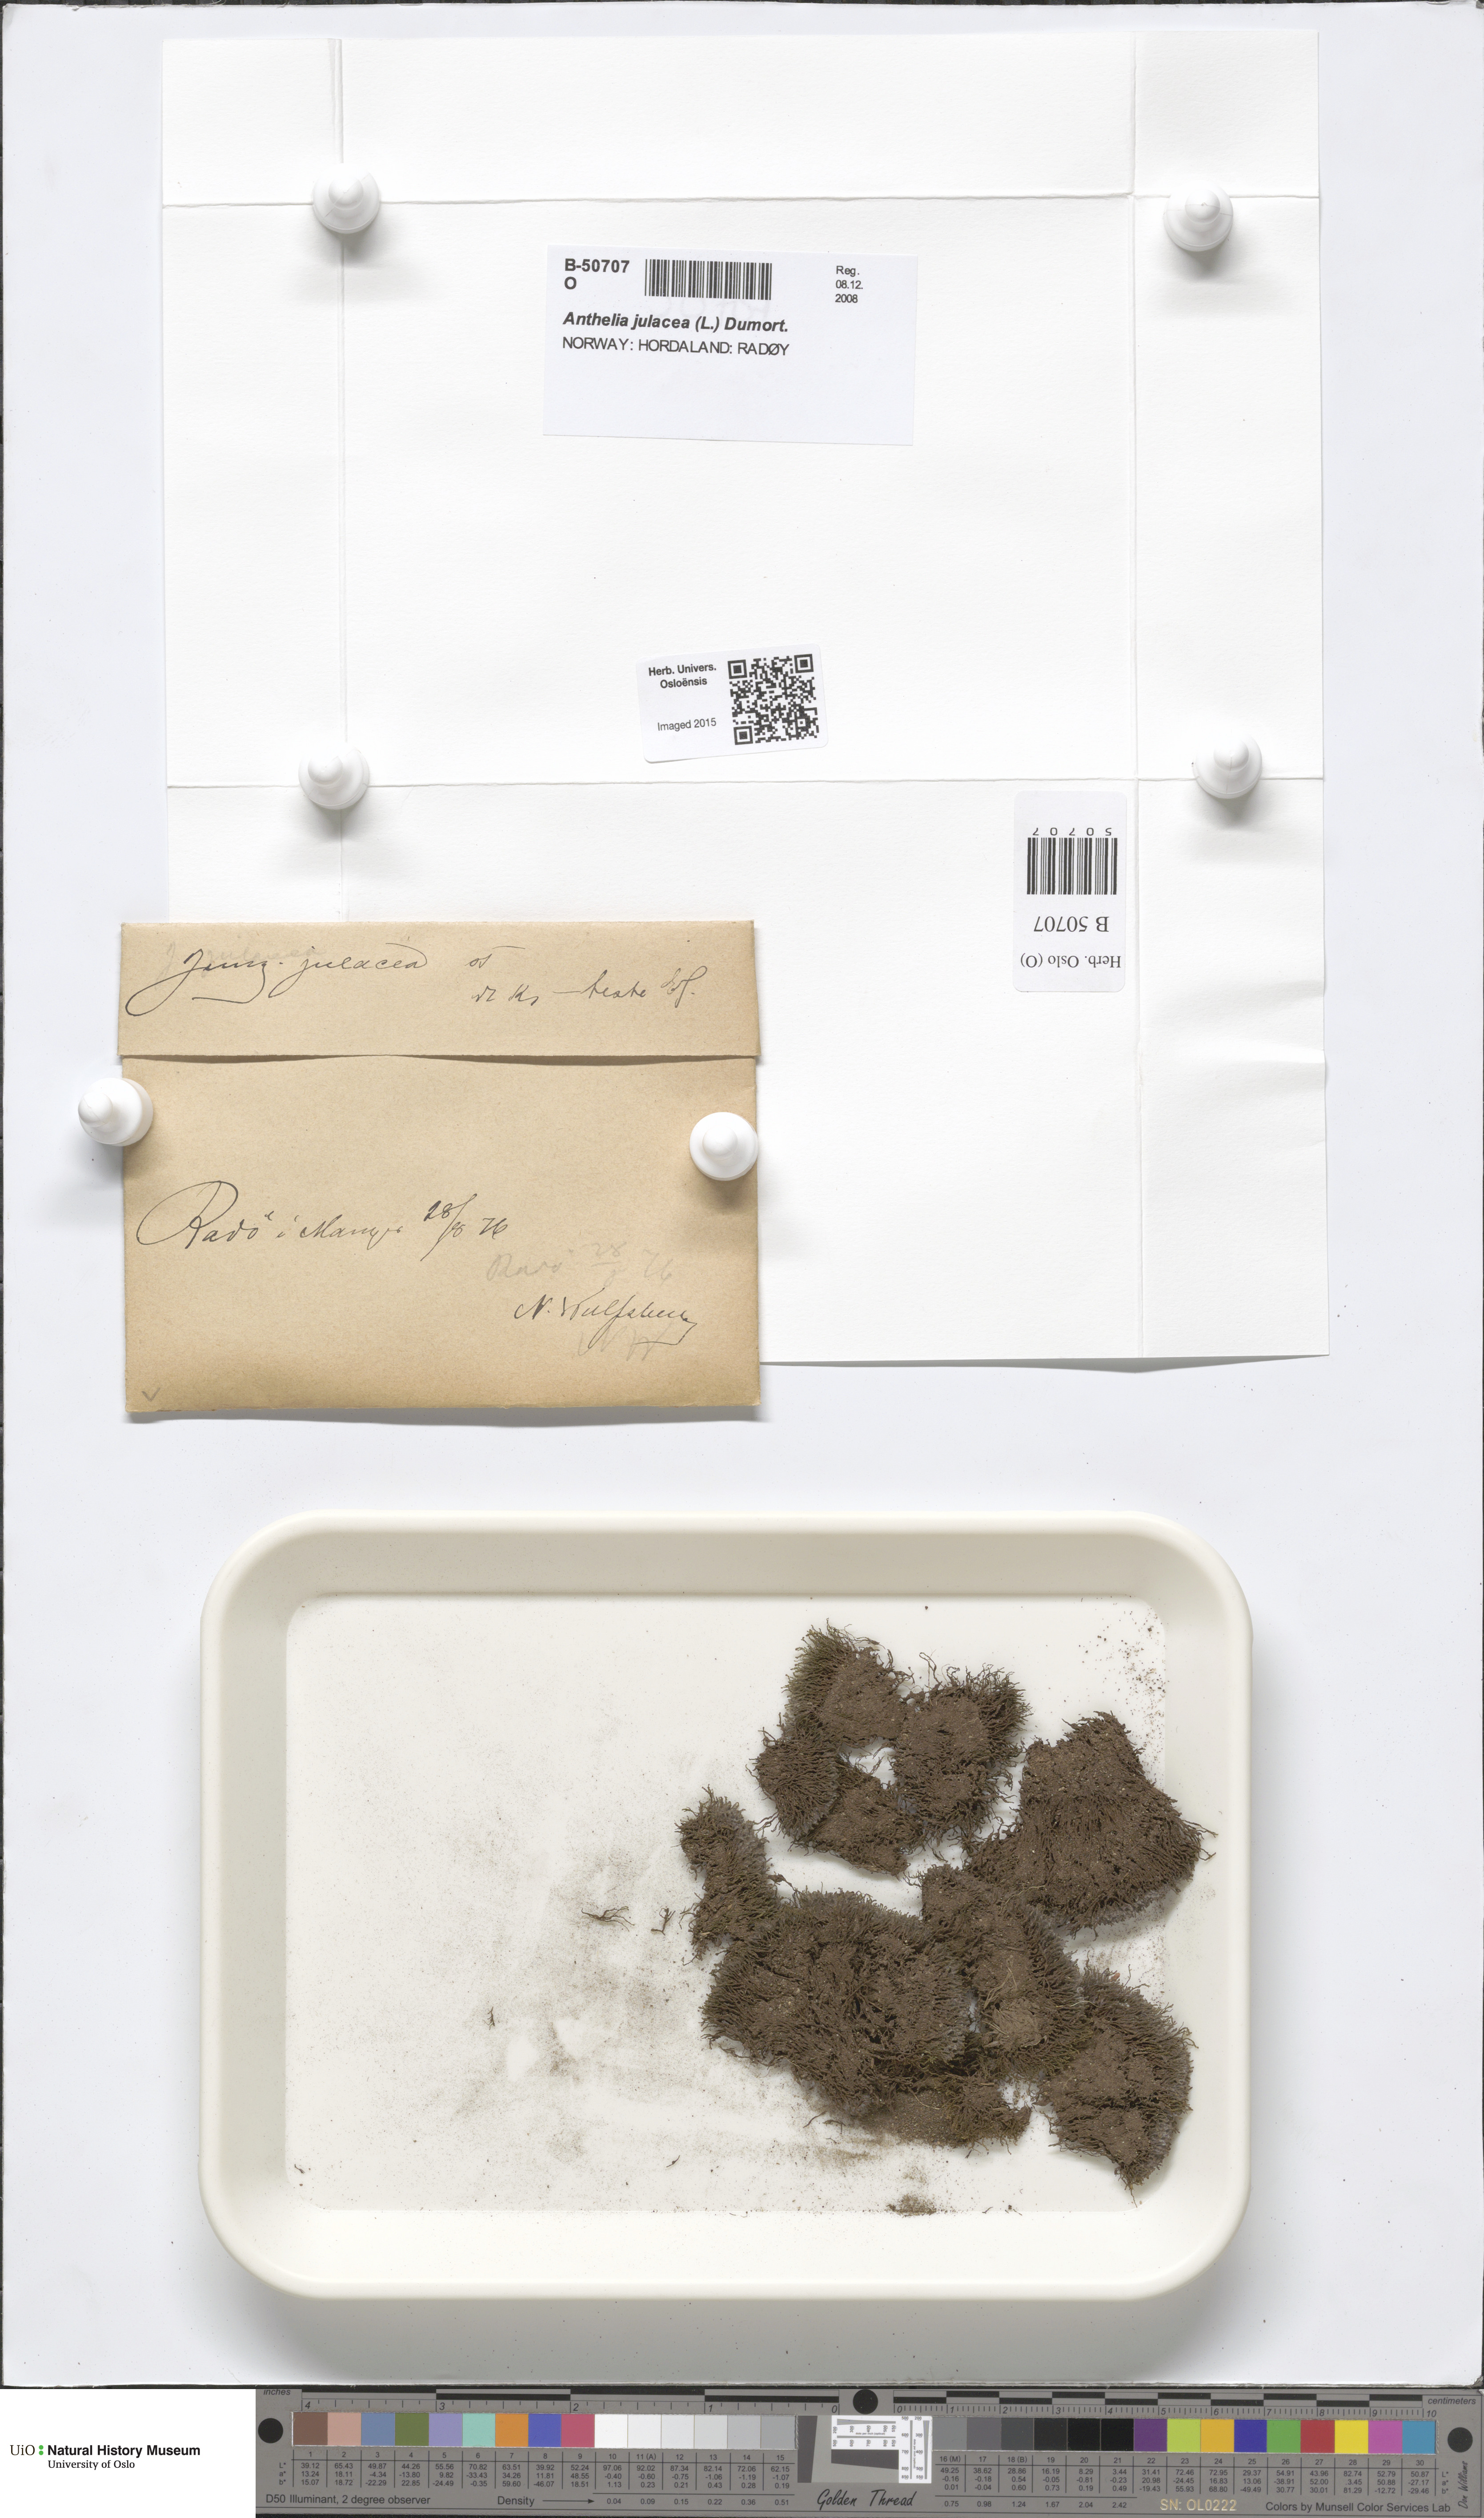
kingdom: Plantae
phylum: Marchantiophyta
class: Jungermanniopsida
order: Jungermanniales
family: Antheliaceae
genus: Anthelia
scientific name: Anthelia julacea
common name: Alpine silverwort
